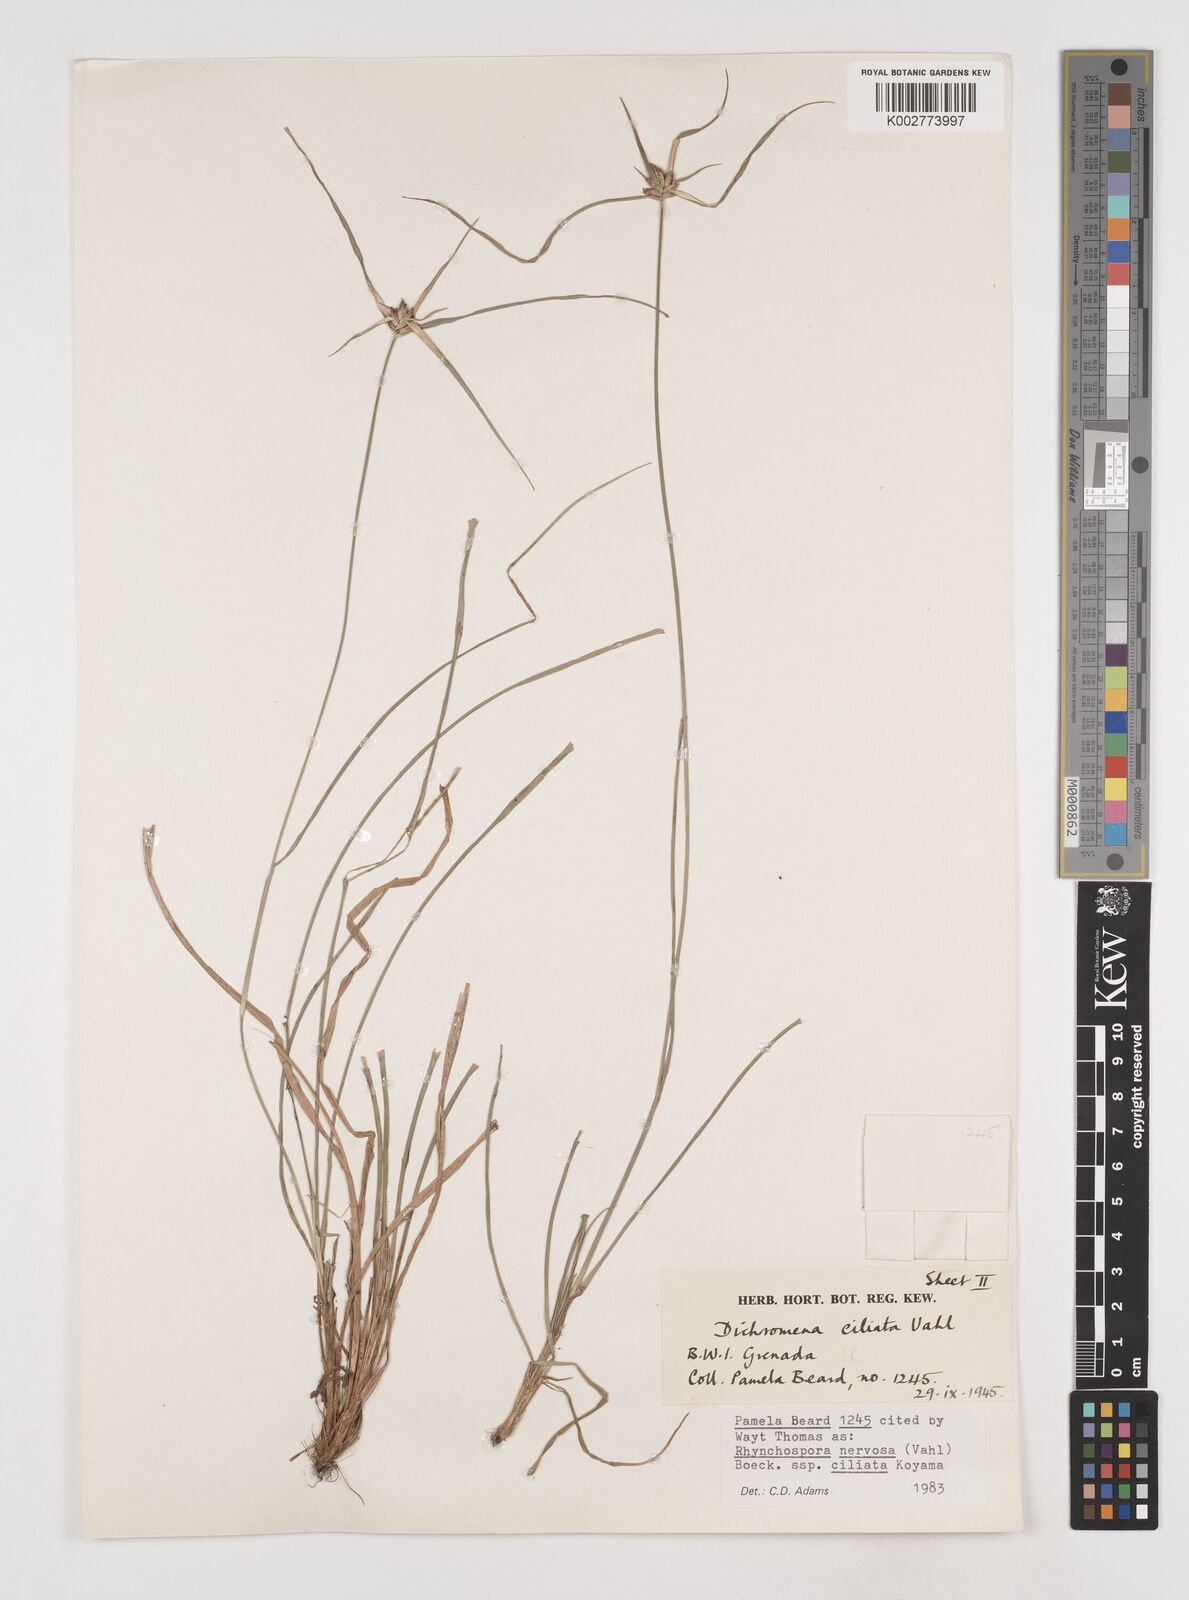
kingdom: Plantae
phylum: Tracheophyta
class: Liliopsida
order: Poales
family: Cyperaceae
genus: Rhynchospora
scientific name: Rhynchospora pura
